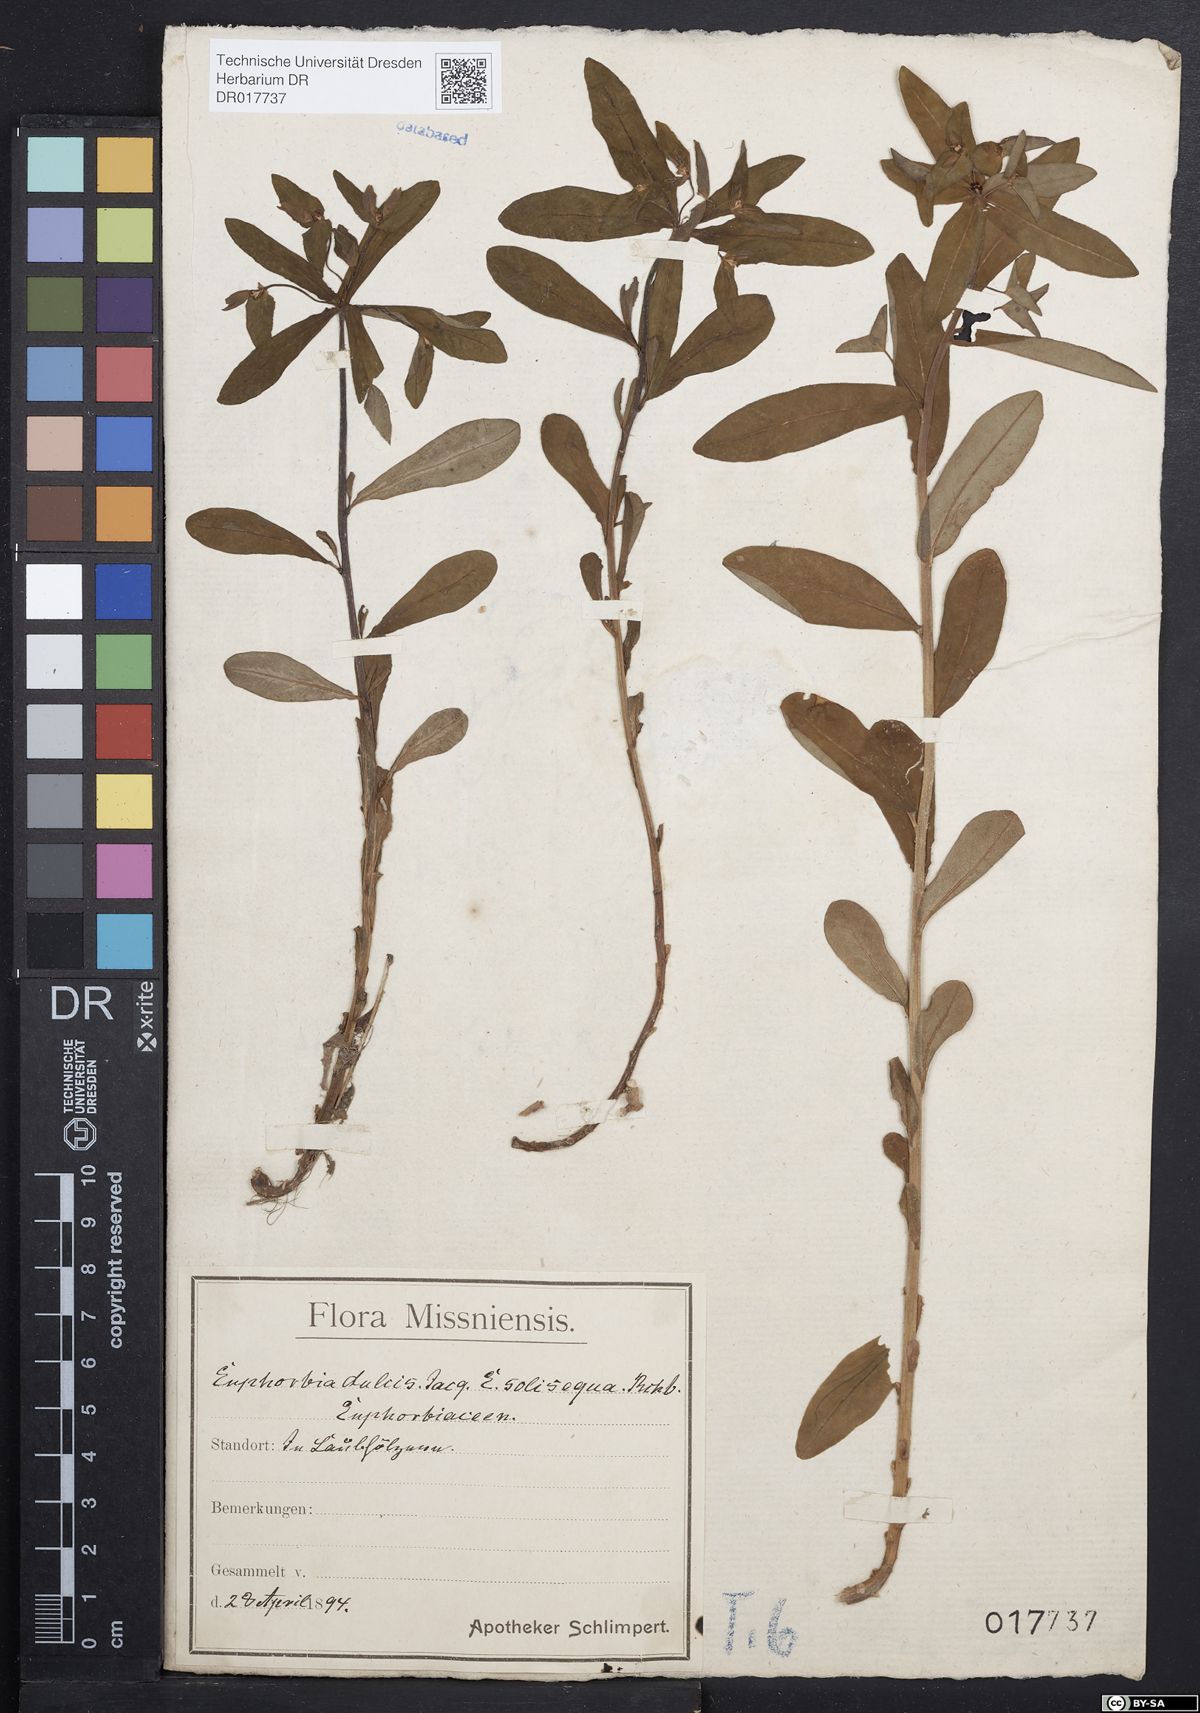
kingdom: Plantae
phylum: Tracheophyta
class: Magnoliopsida
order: Malpighiales
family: Euphorbiaceae
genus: Euphorbia
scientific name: Euphorbia dulcis
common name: Sweet spurge
